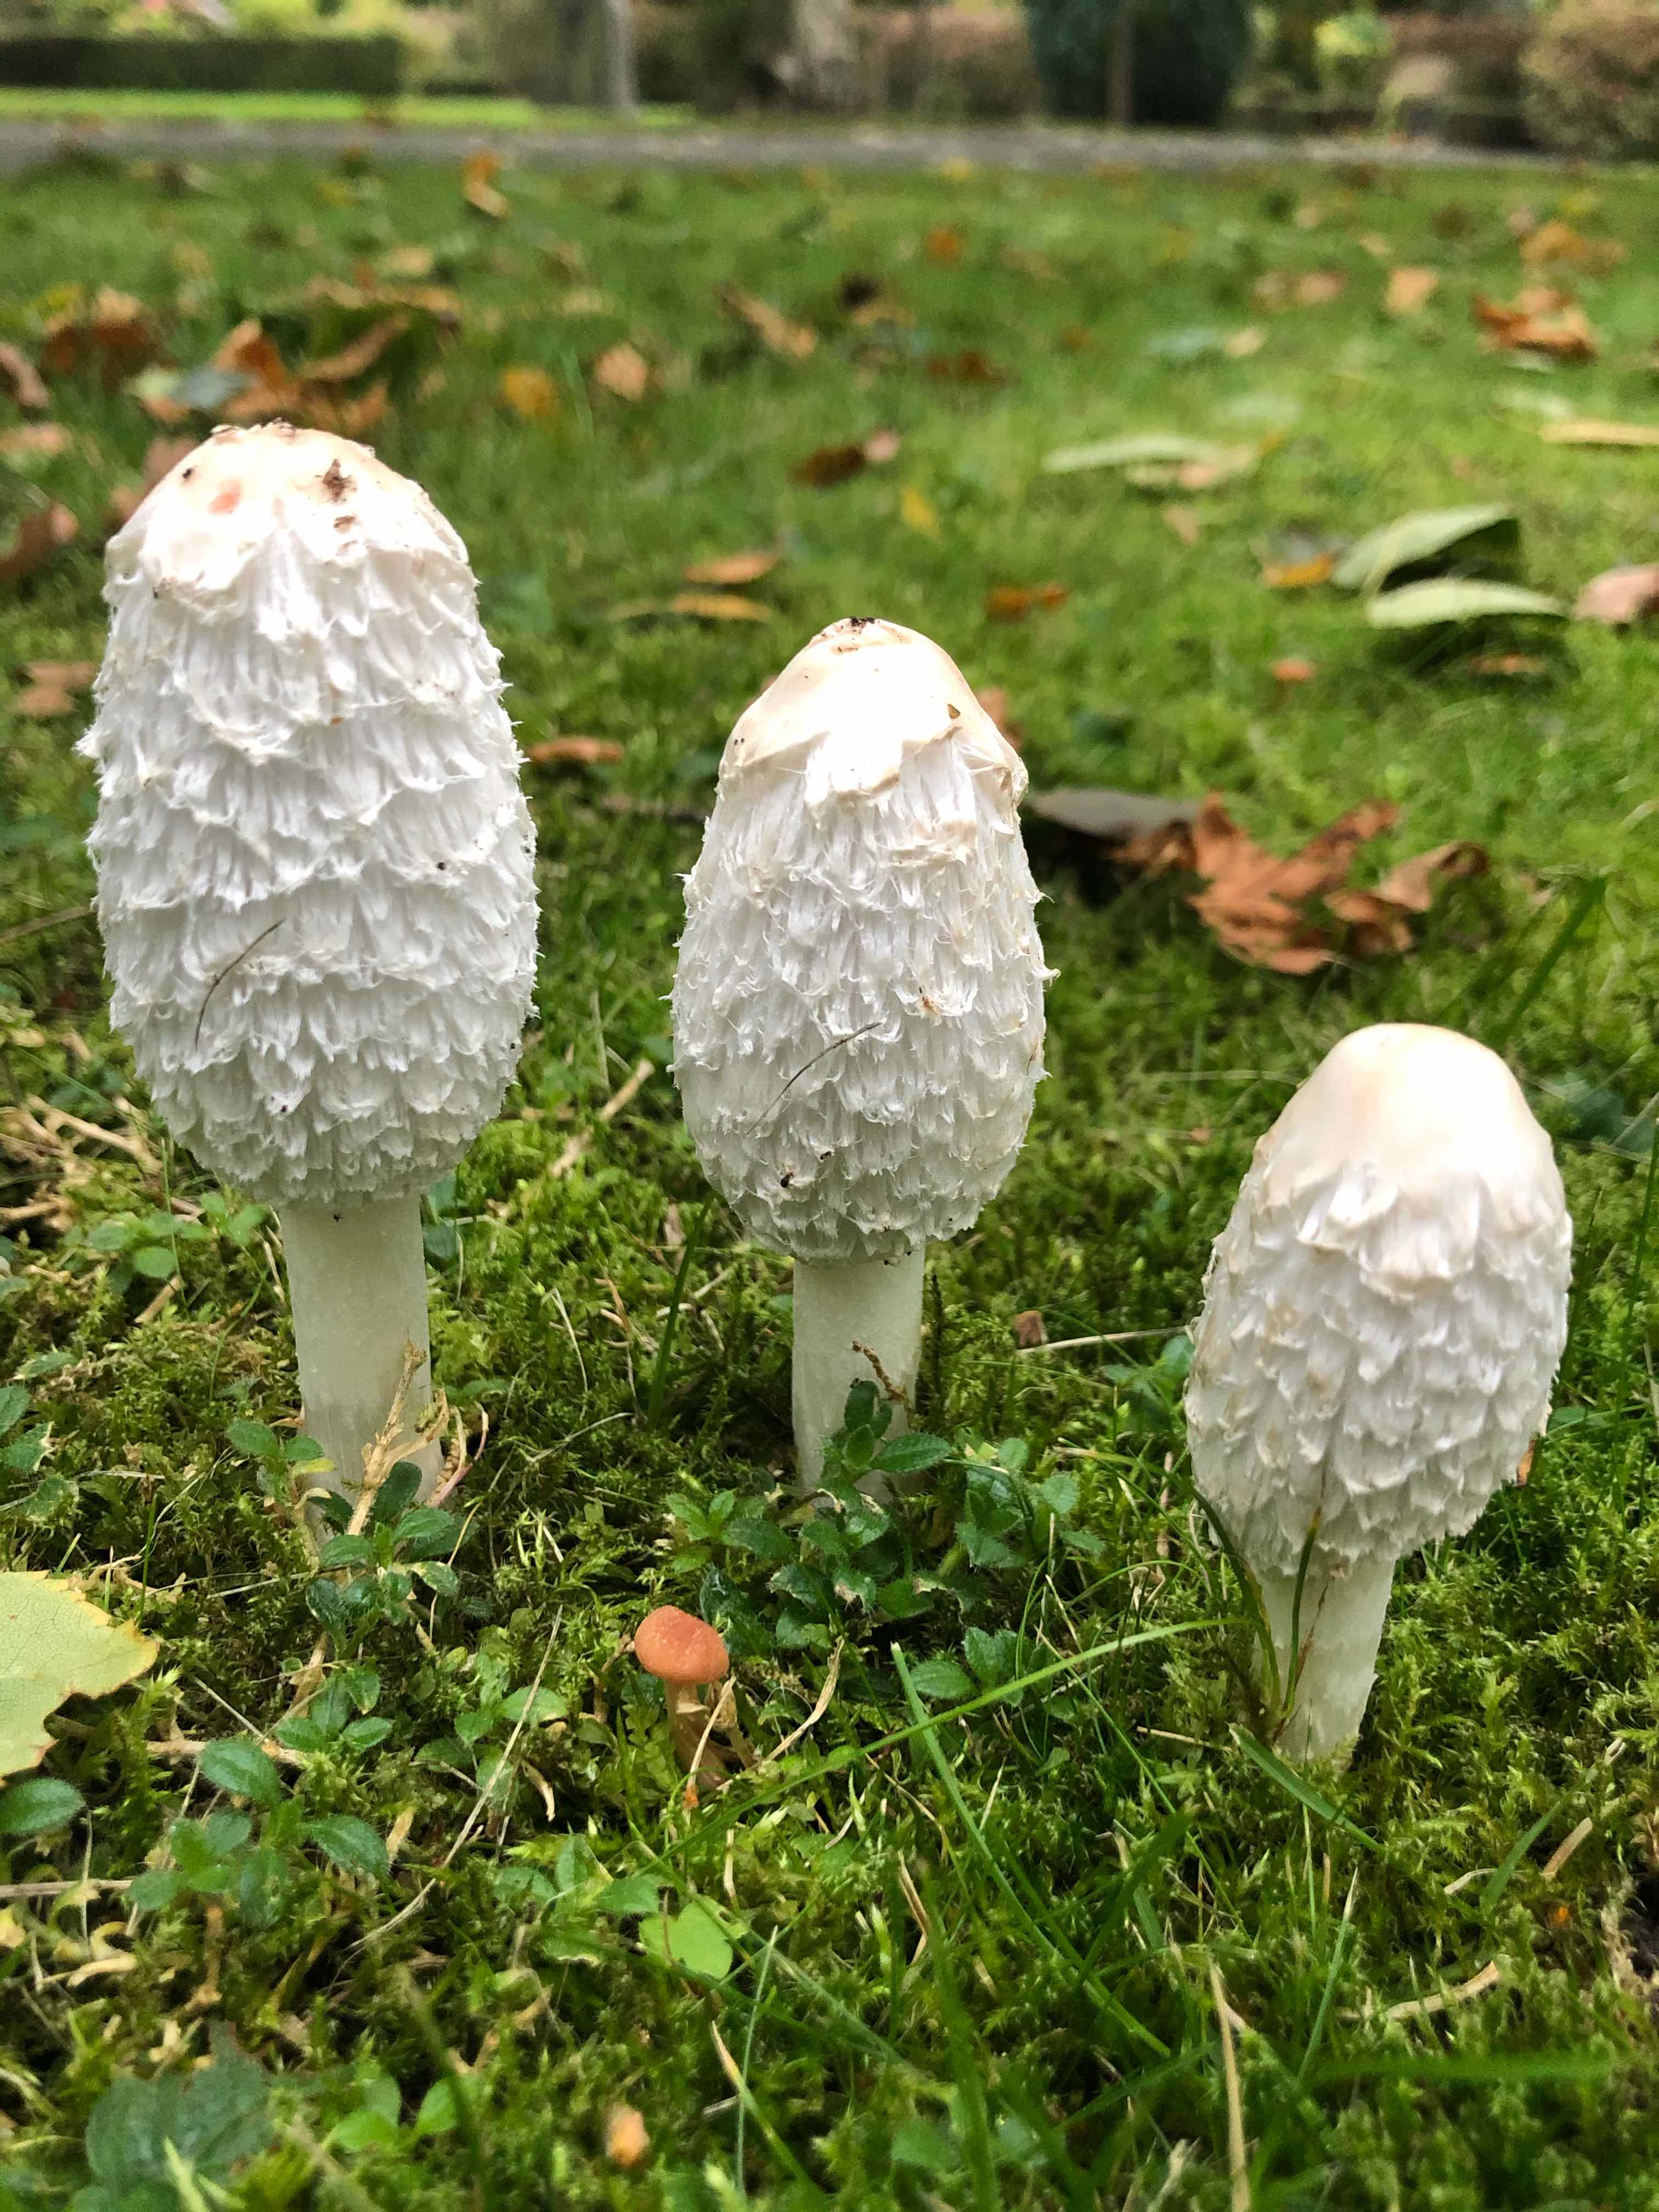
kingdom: Fungi
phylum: Basidiomycota
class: Agaricomycetes
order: Agaricales
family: Agaricaceae
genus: Coprinus
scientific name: Coprinus comatus
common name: stor parykhat
